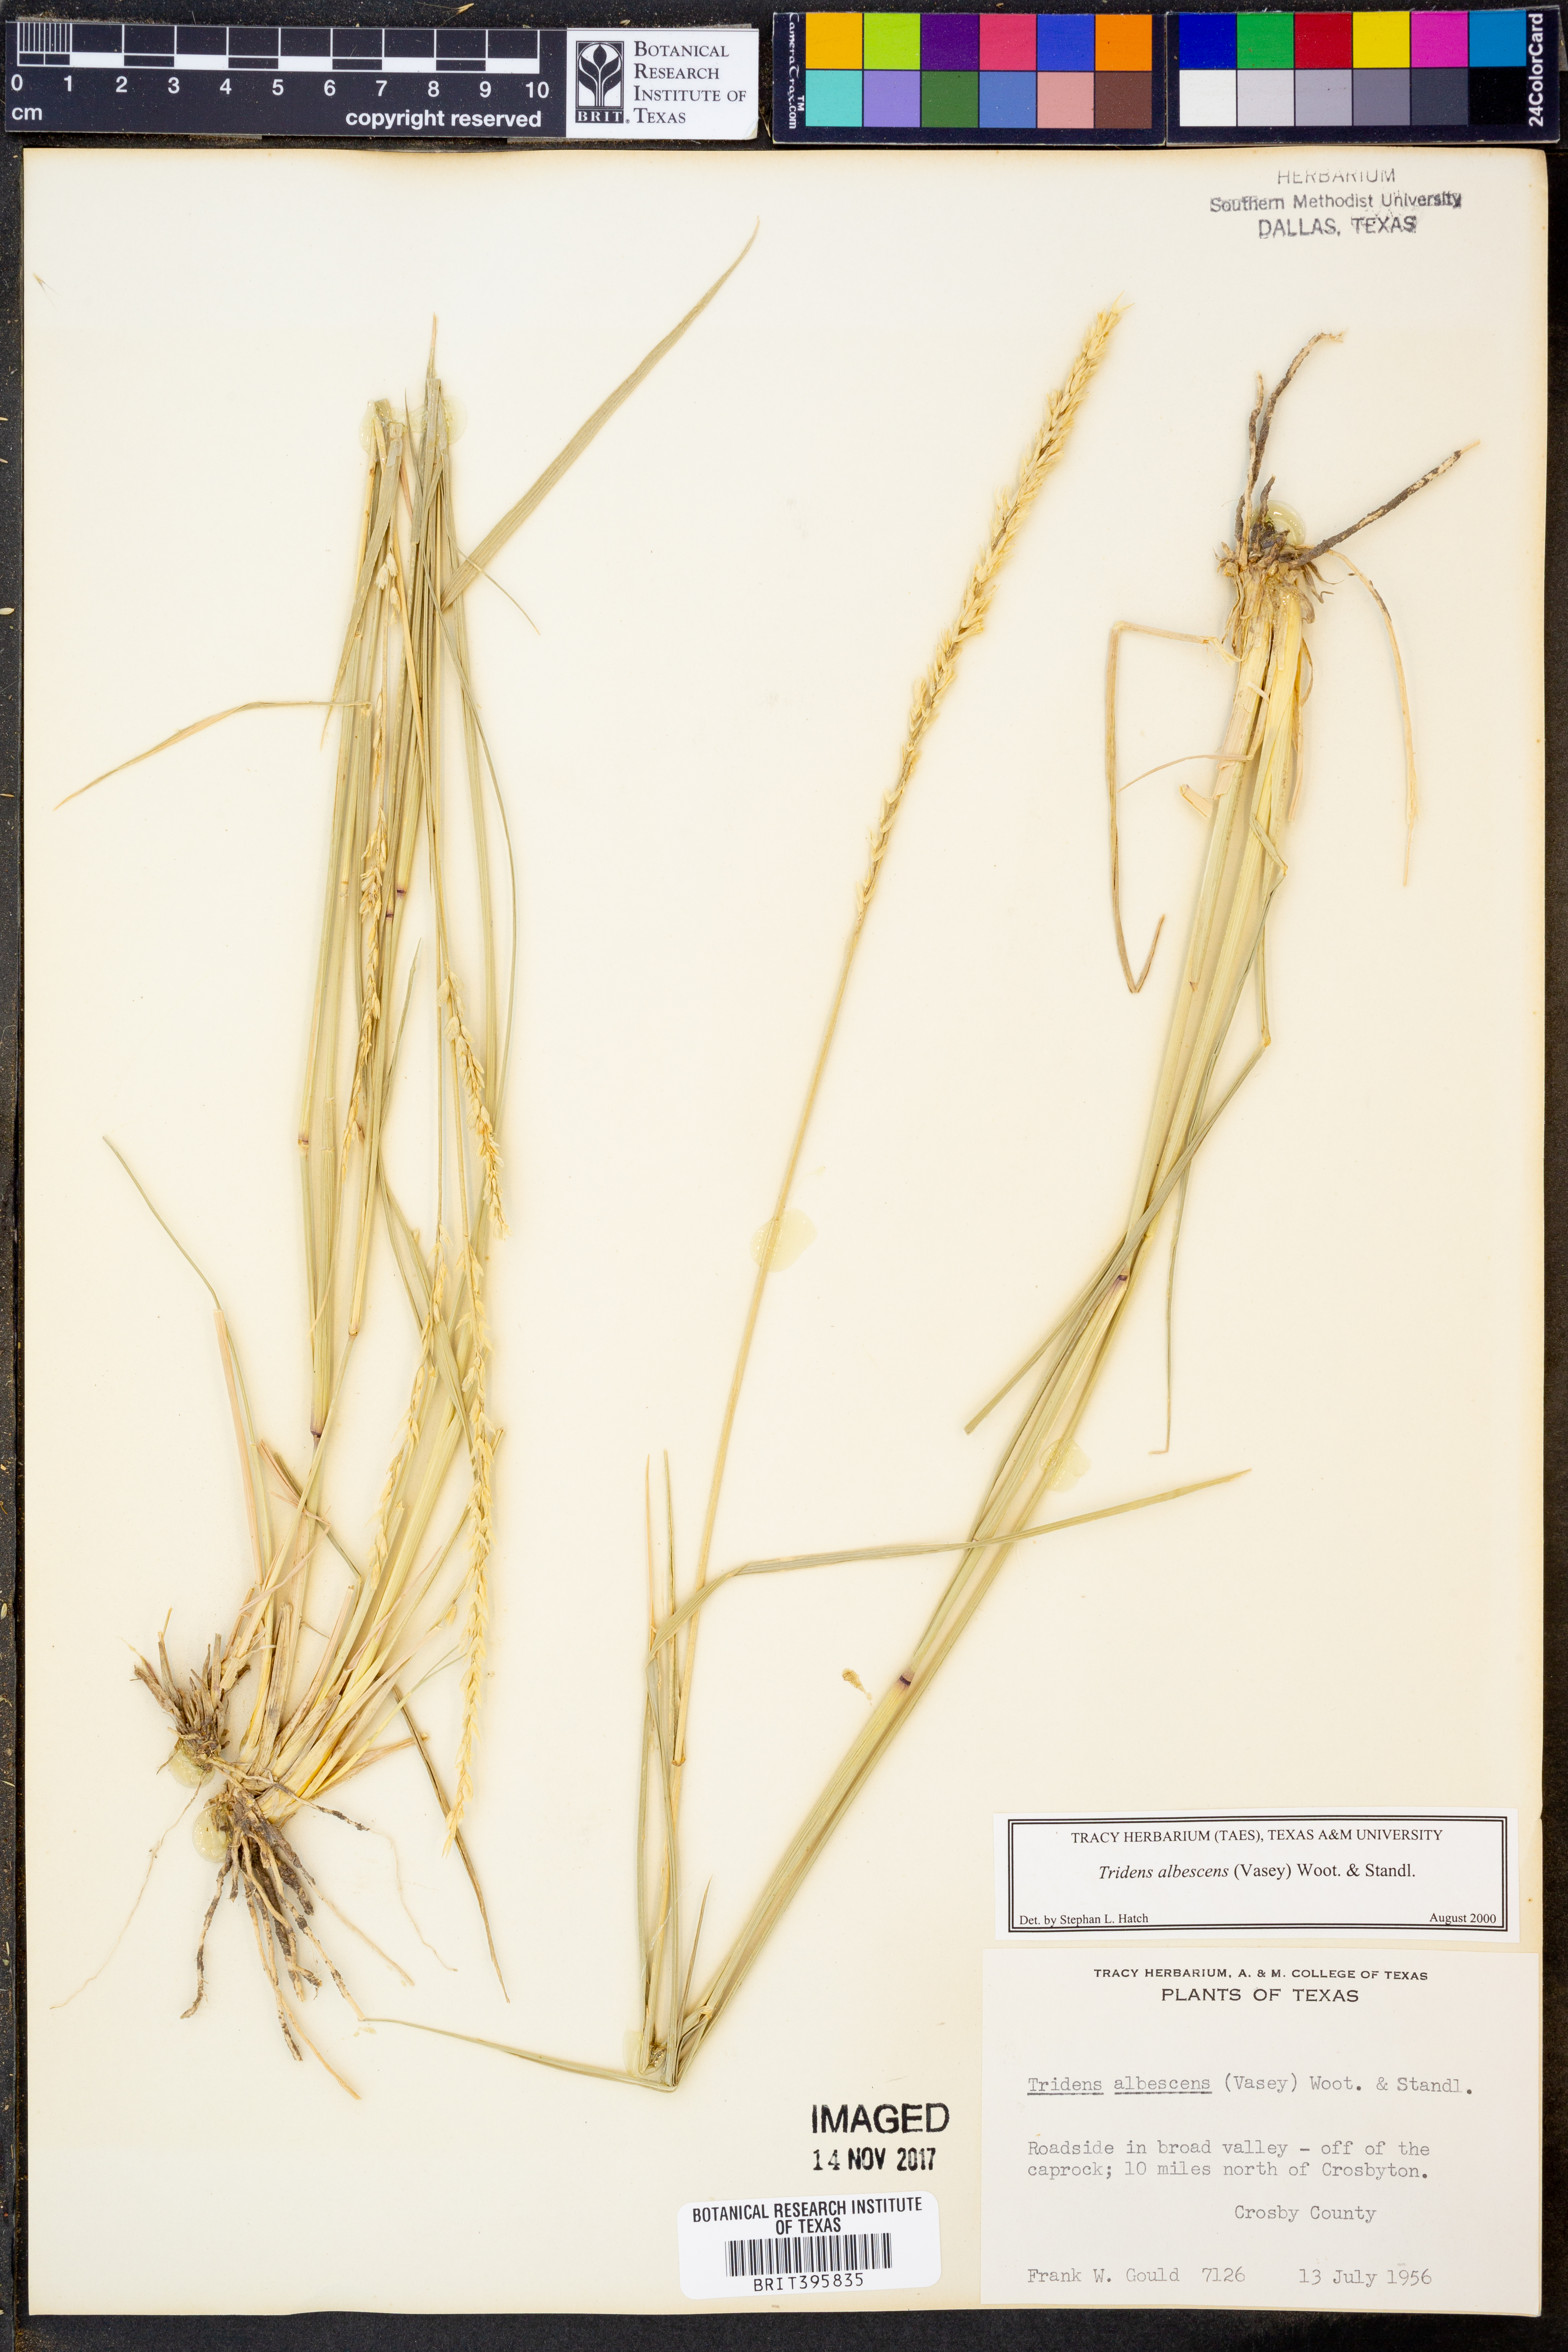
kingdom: Plantae
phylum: Tracheophyta
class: Liliopsida
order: Poales
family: Poaceae
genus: Tridens
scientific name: Tridens albescens
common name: White tridens
